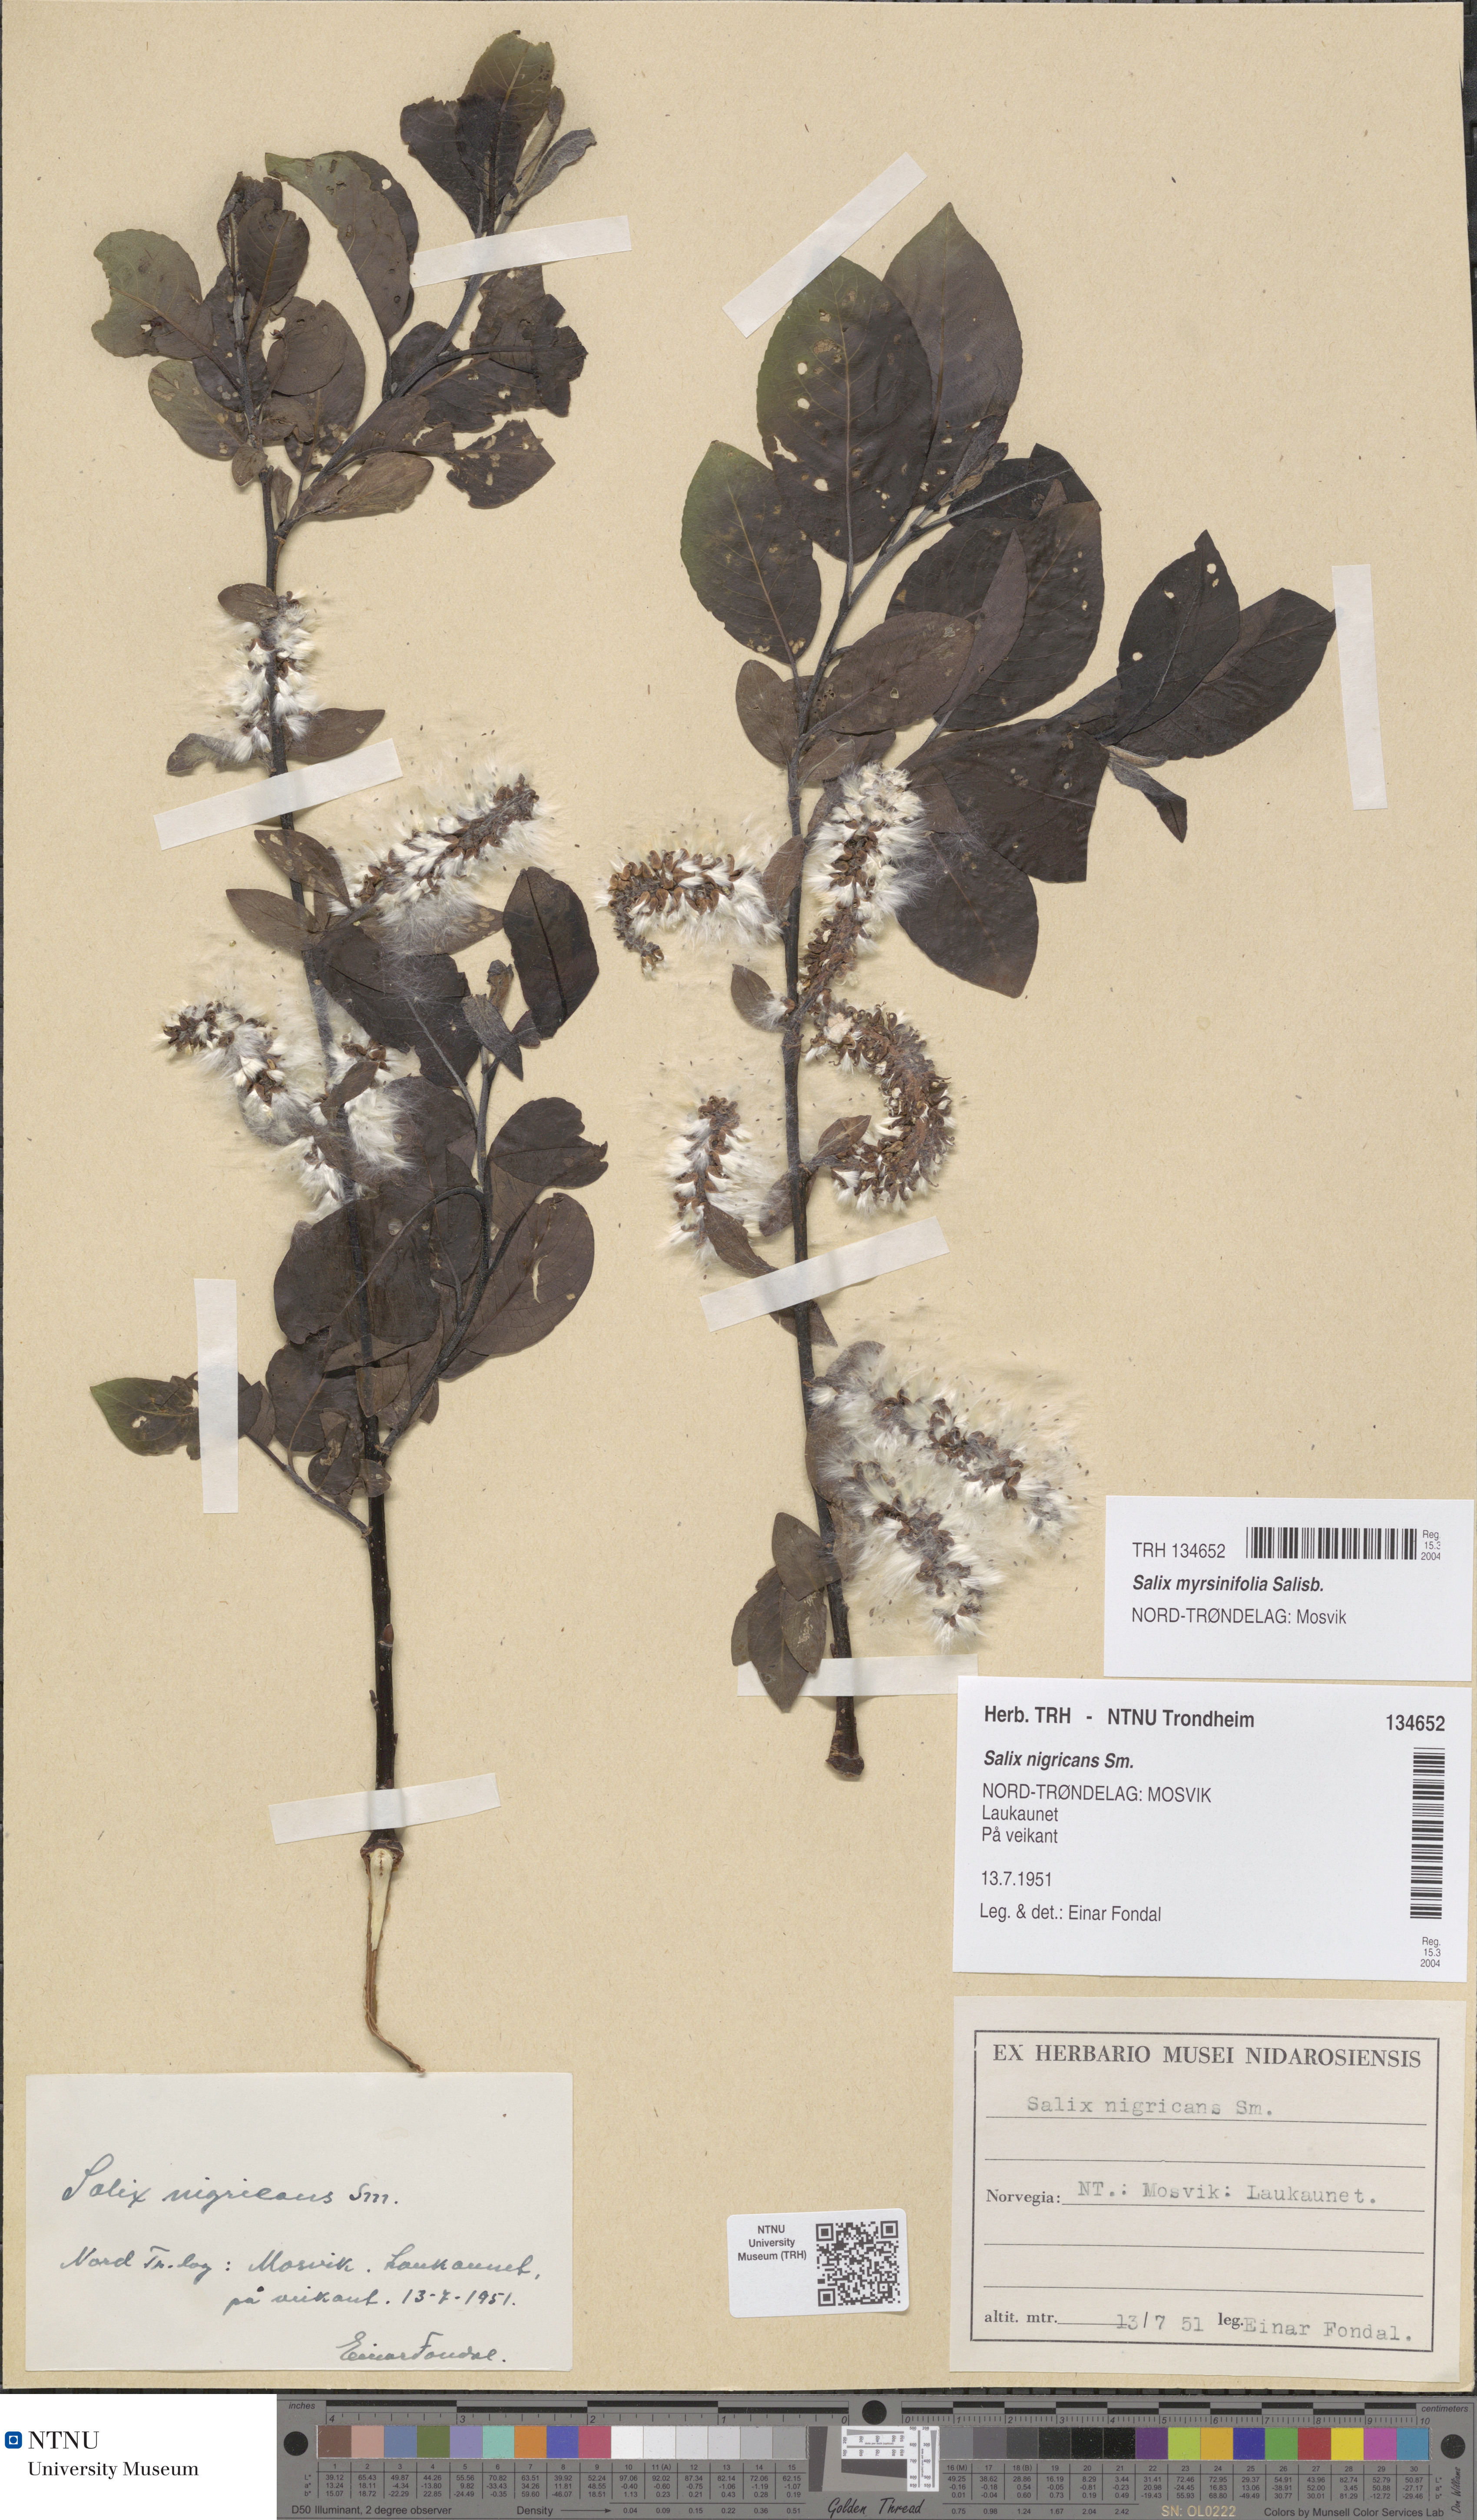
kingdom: Plantae
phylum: Tracheophyta
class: Magnoliopsida
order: Malpighiales
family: Salicaceae
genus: Salix
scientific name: Salix myrsinifolia
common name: Dark-leaved willow
